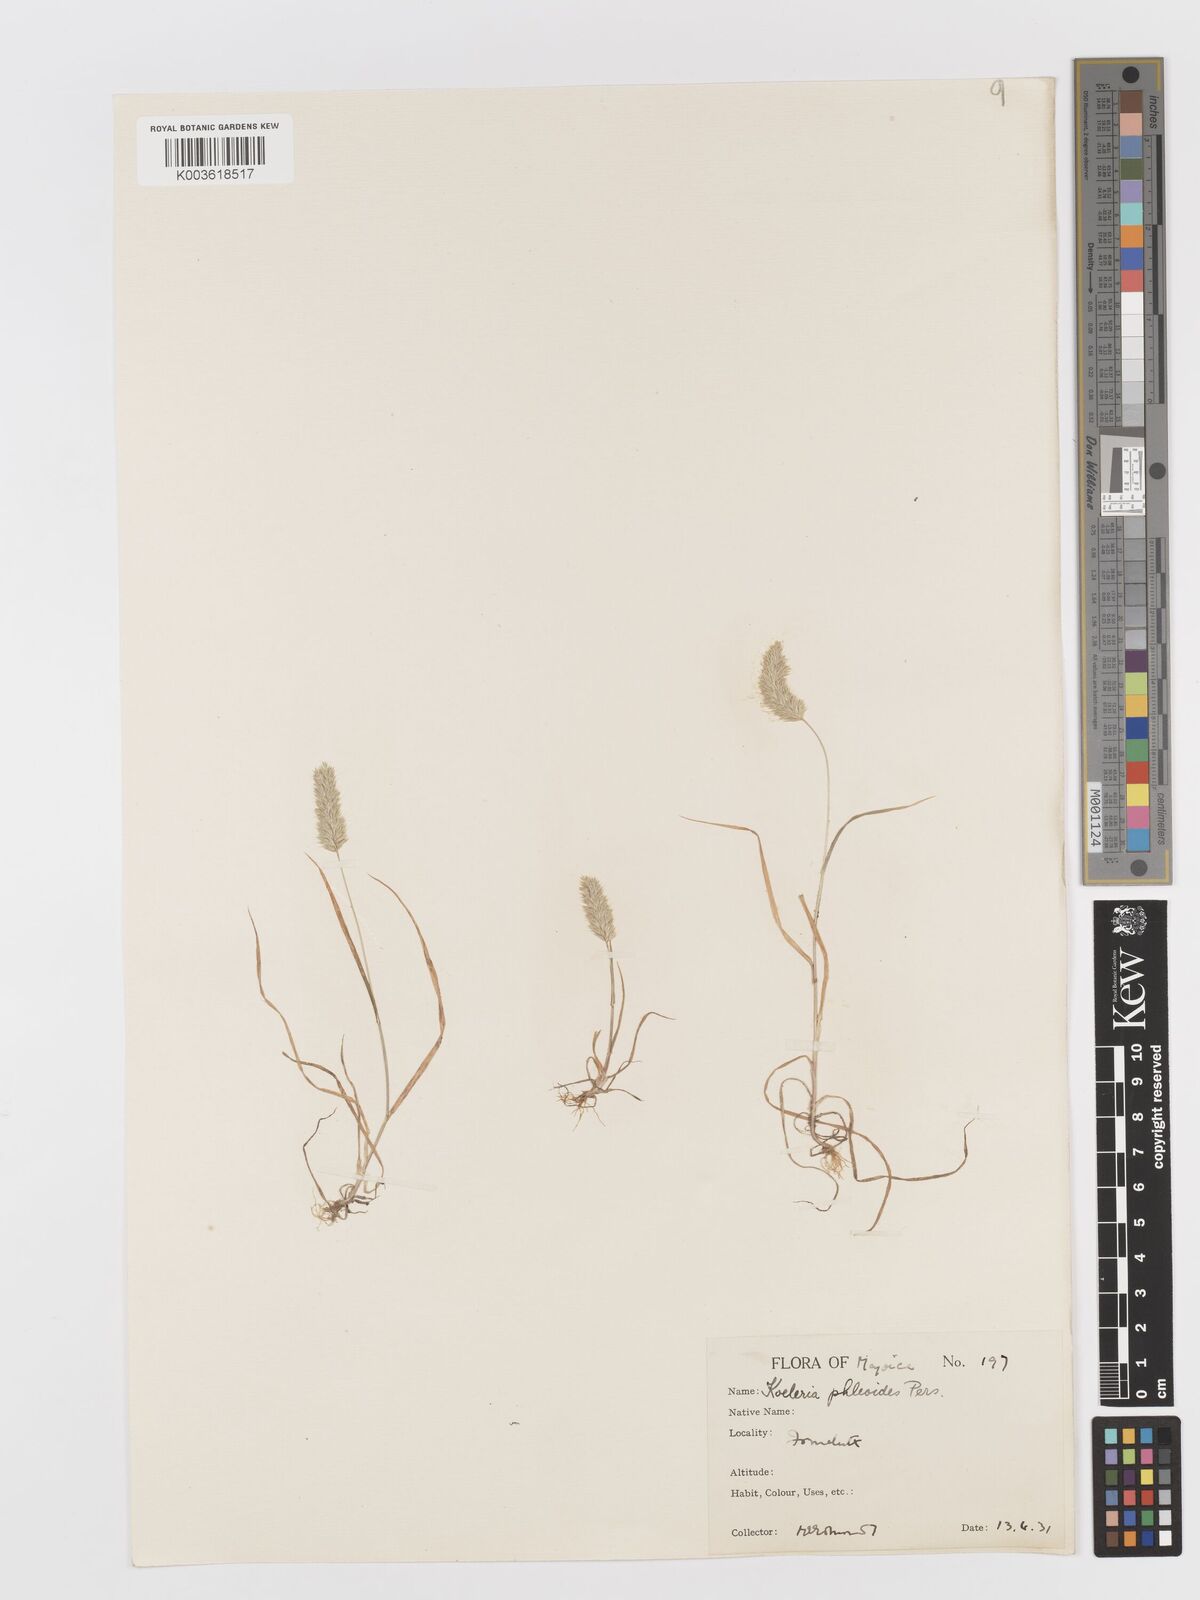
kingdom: Plantae
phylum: Tracheophyta
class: Liliopsida
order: Poales
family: Poaceae
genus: Rostraria
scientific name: Rostraria cristata
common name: Mediterranean hair-grass
